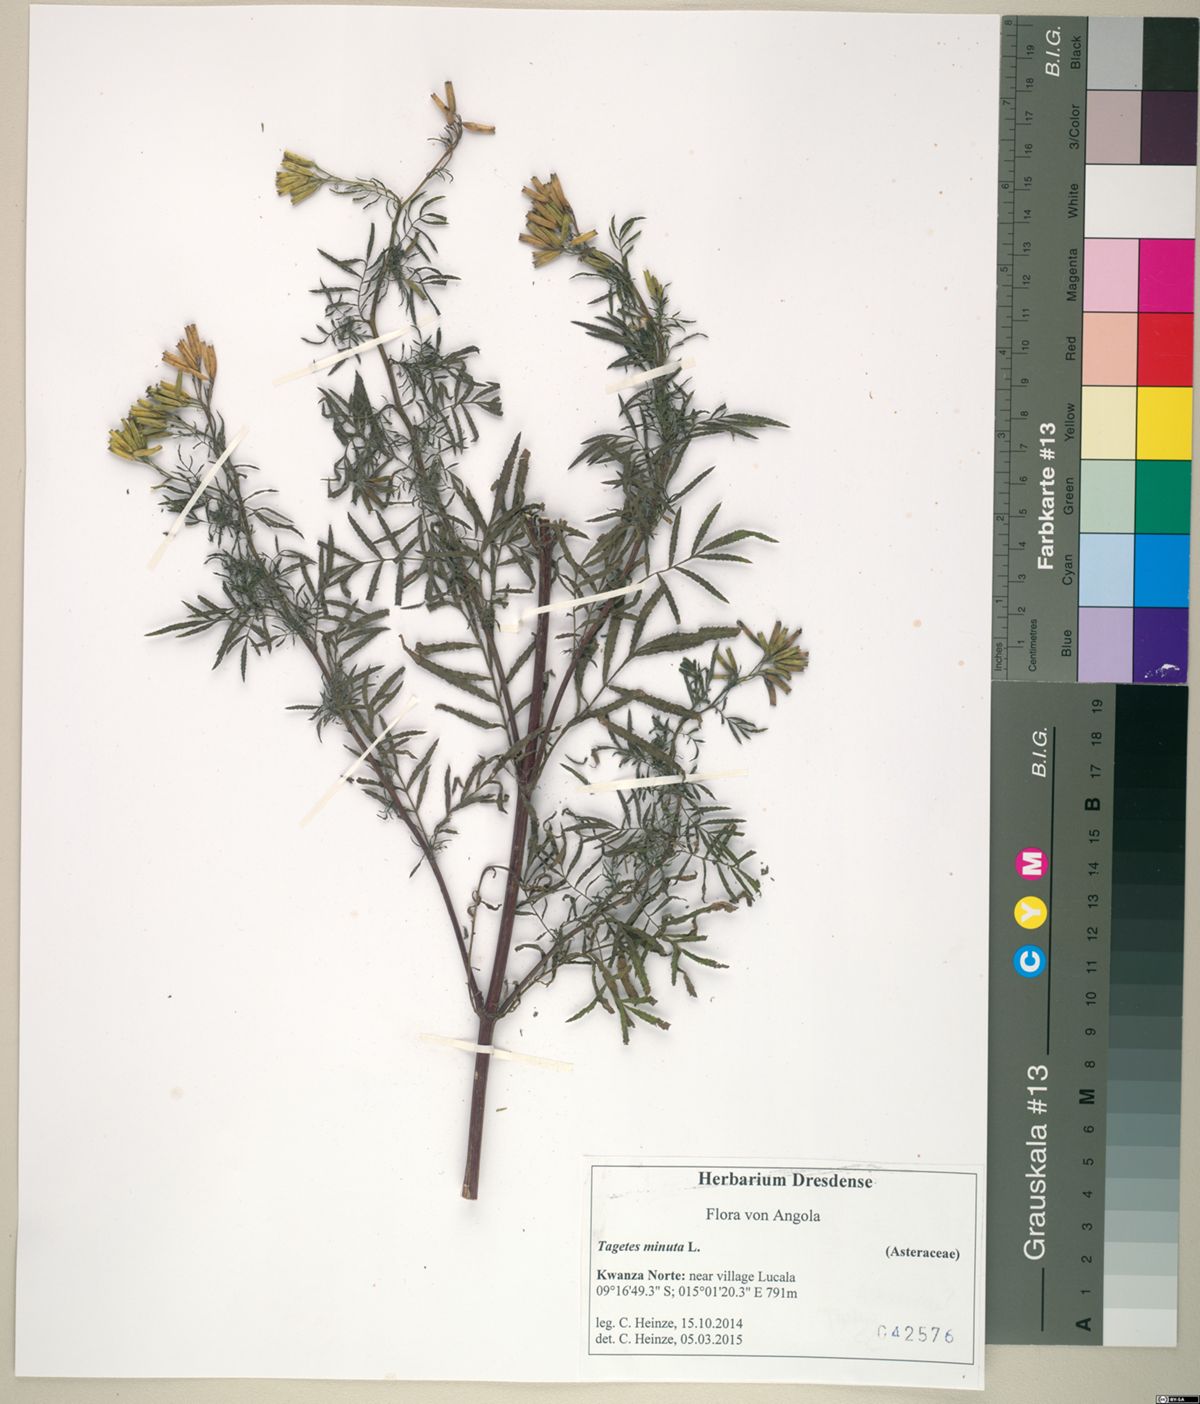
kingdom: Plantae
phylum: Tracheophyta
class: Magnoliopsida
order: Asterales
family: Asteraceae
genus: Tagetes
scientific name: Tagetes minuta
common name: Muster john henry
